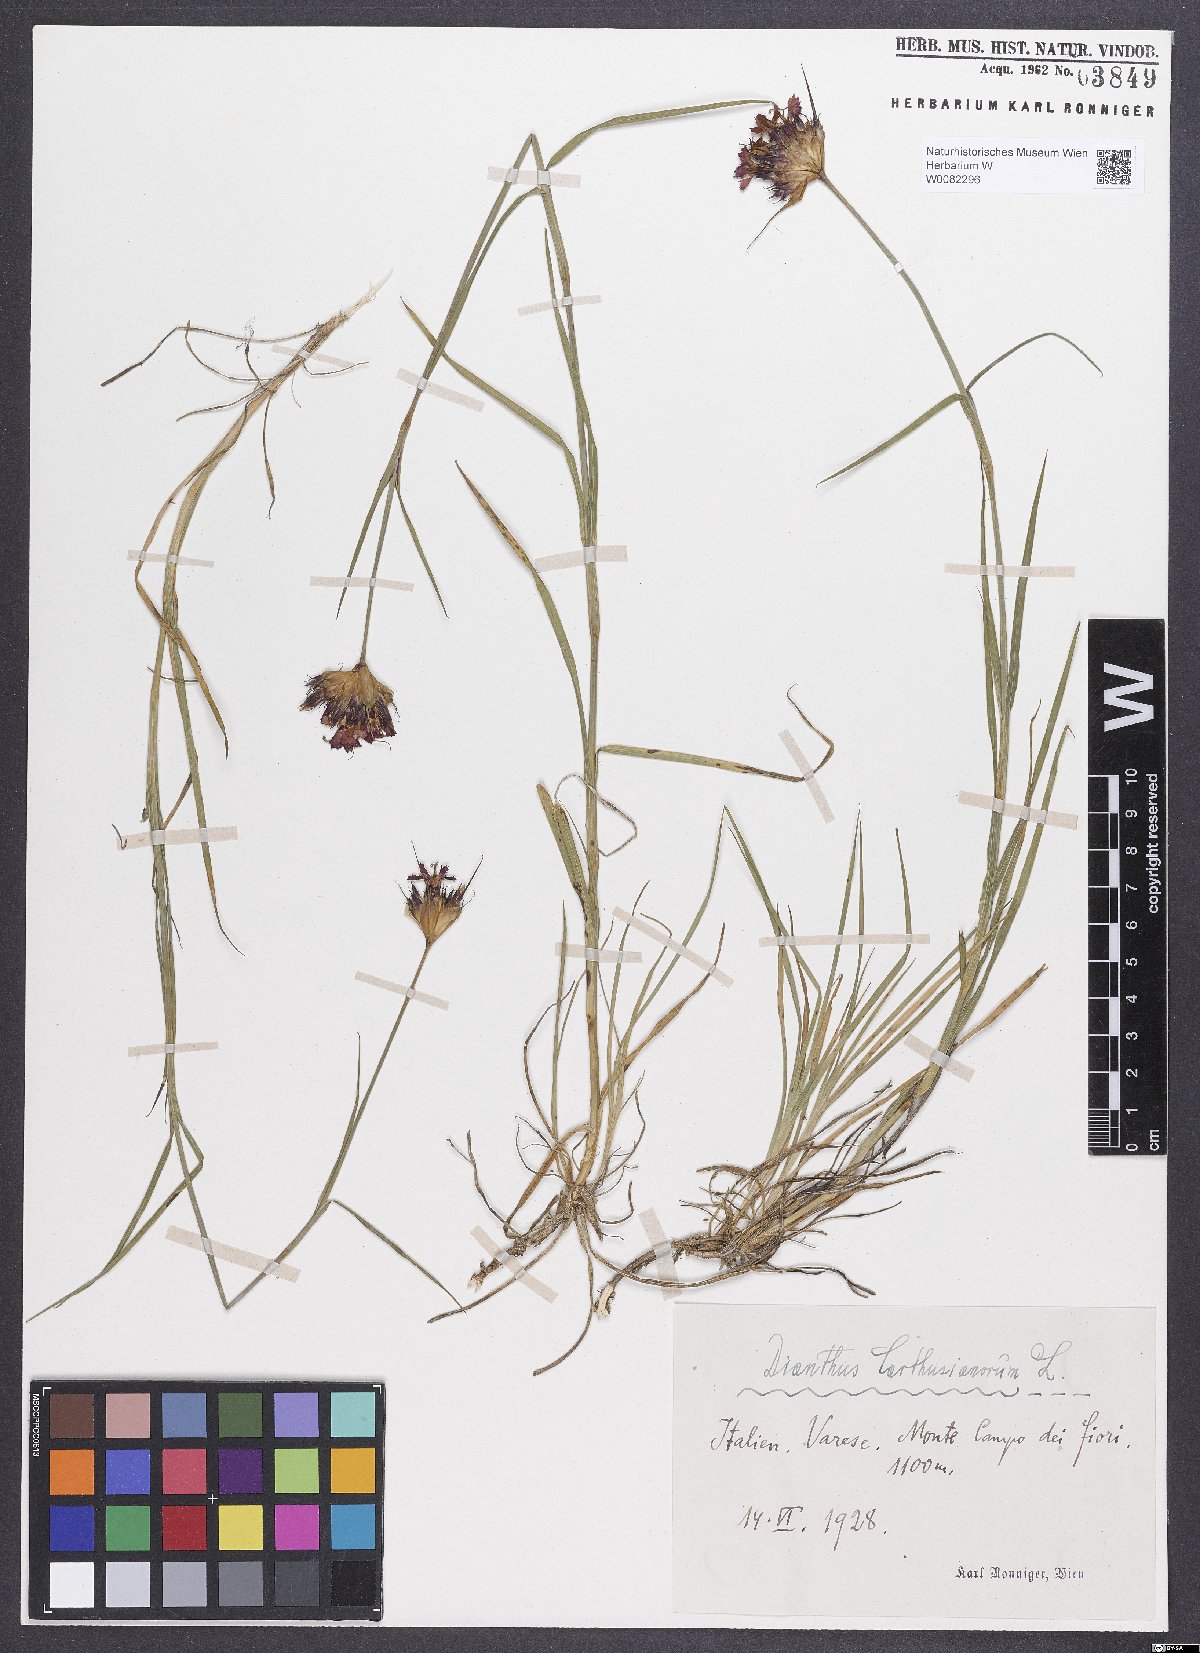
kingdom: Plantae
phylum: Tracheophyta
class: Magnoliopsida
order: Caryophyllales
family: Caryophyllaceae
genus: Dianthus
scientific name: Dianthus carthusianorum
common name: Carthusian pink
